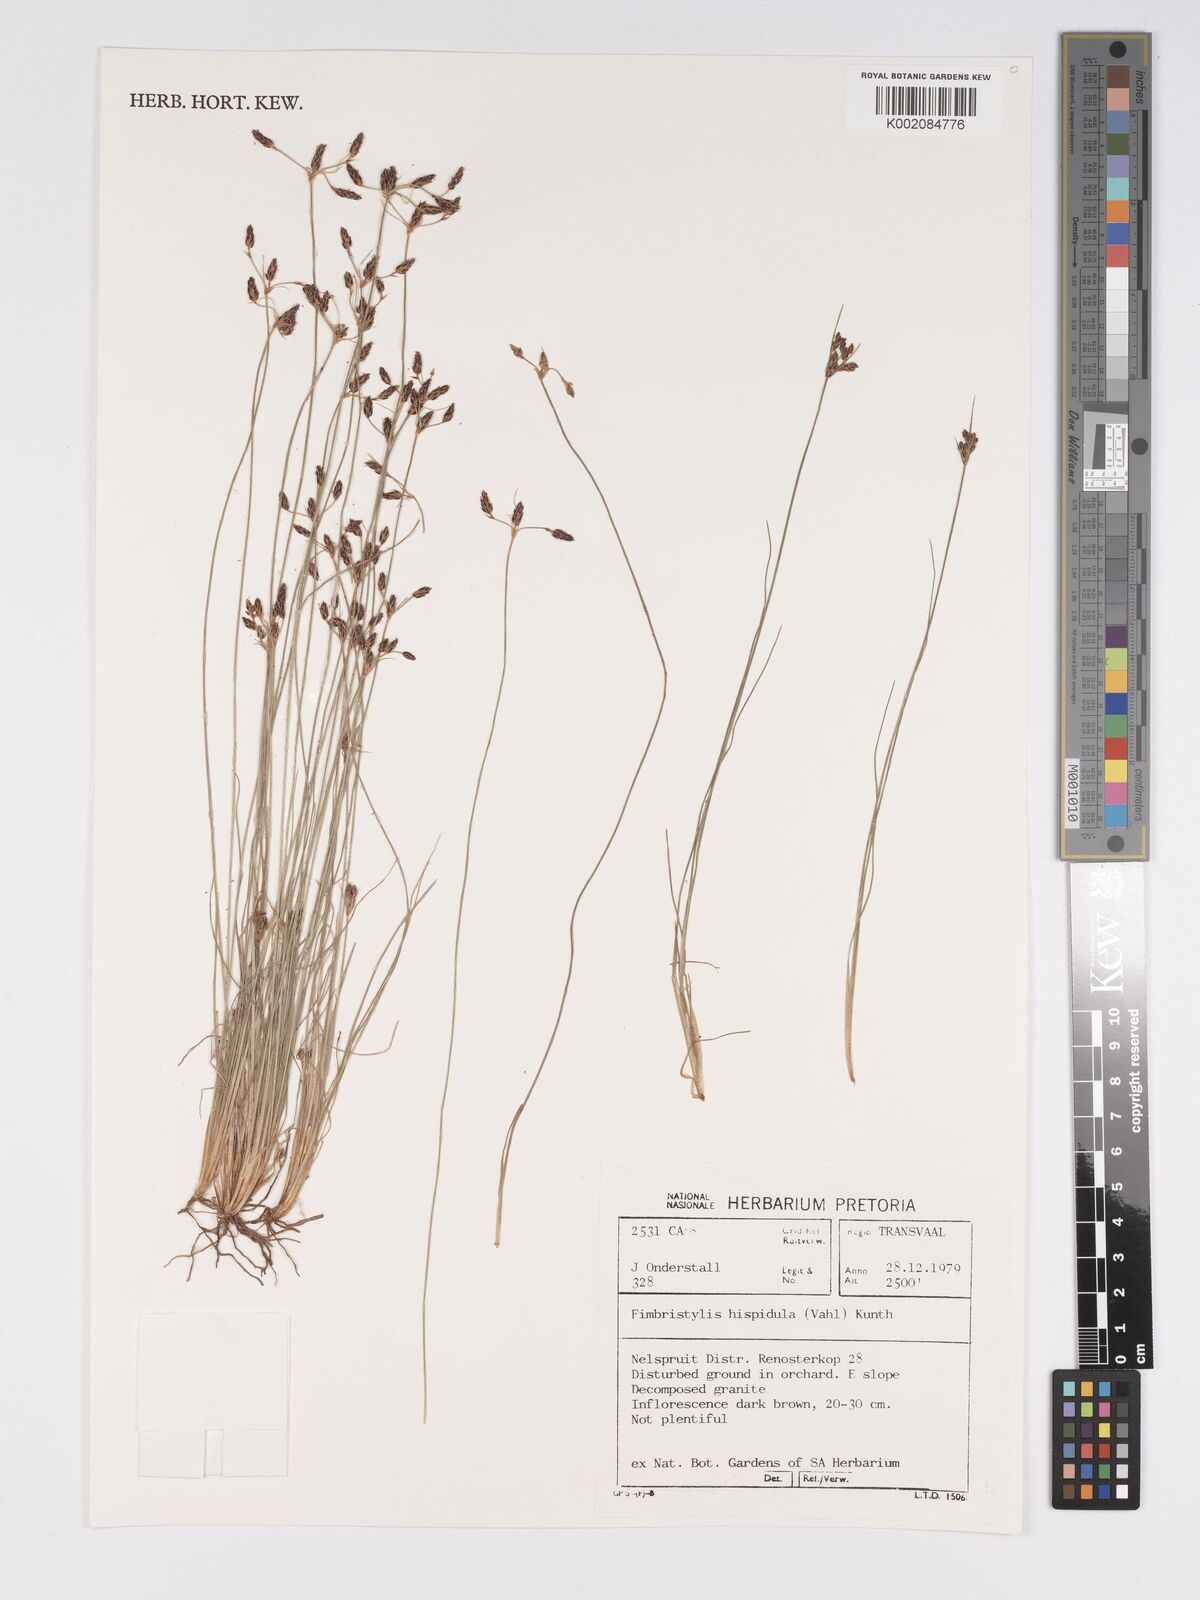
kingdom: Plantae
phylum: Tracheophyta
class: Liliopsida
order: Poales
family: Cyperaceae
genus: Bulbostylis
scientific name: Bulbostylis hispidula
